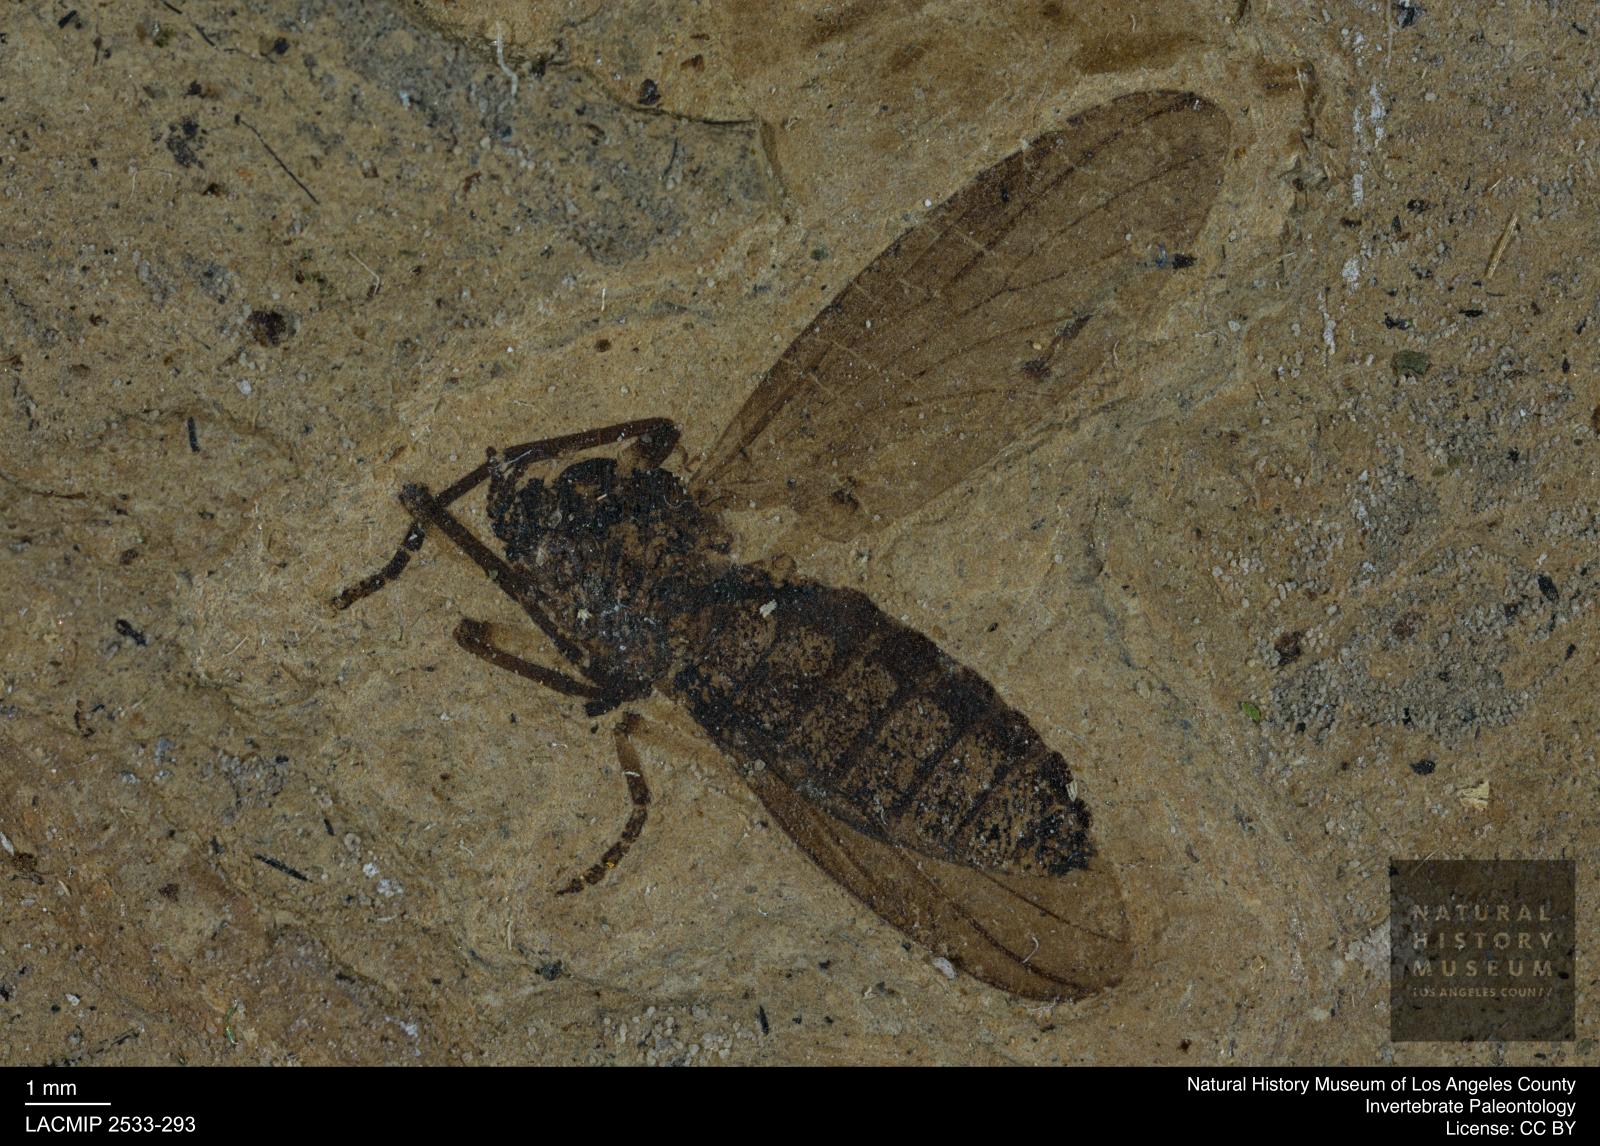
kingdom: Animalia
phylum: Arthropoda
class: Insecta
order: Diptera
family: Bibionidae
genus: Plecia
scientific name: Plecia sturmi
